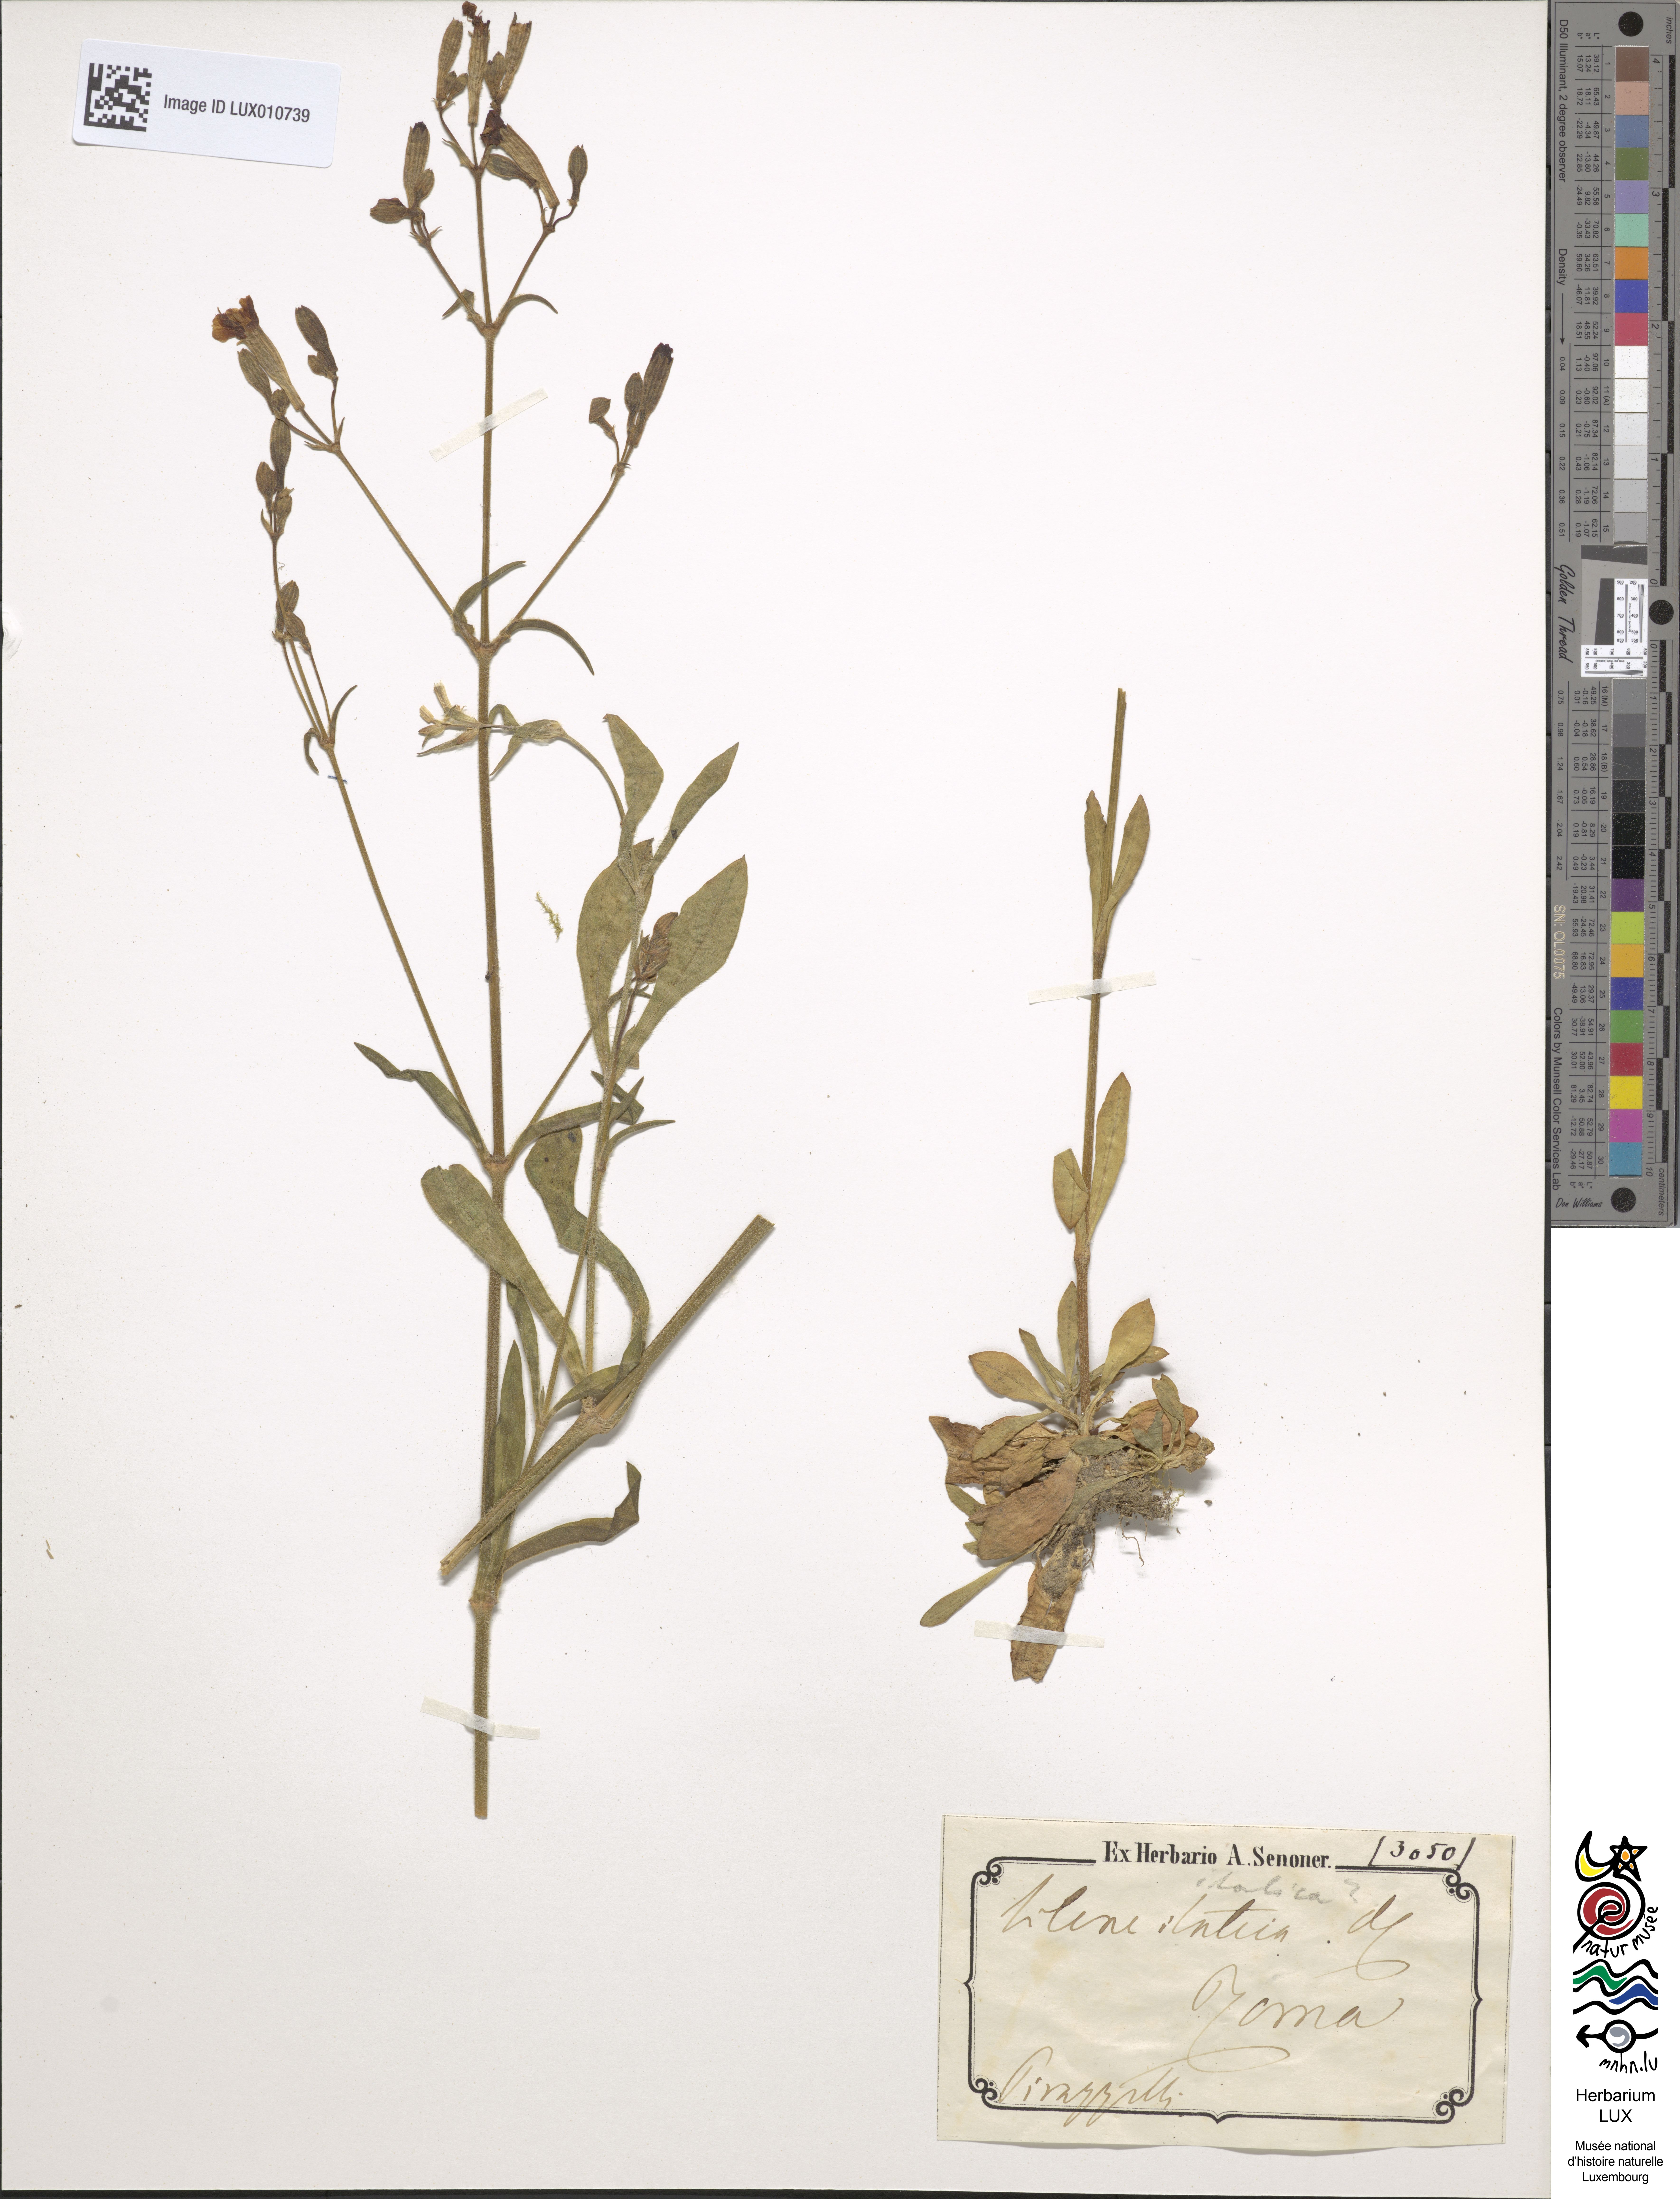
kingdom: Plantae
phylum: Tracheophyta
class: Magnoliopsida
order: Caryophyllales
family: Caryophyllaceae
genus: Silene
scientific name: Silene italica
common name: Italian catchfly
